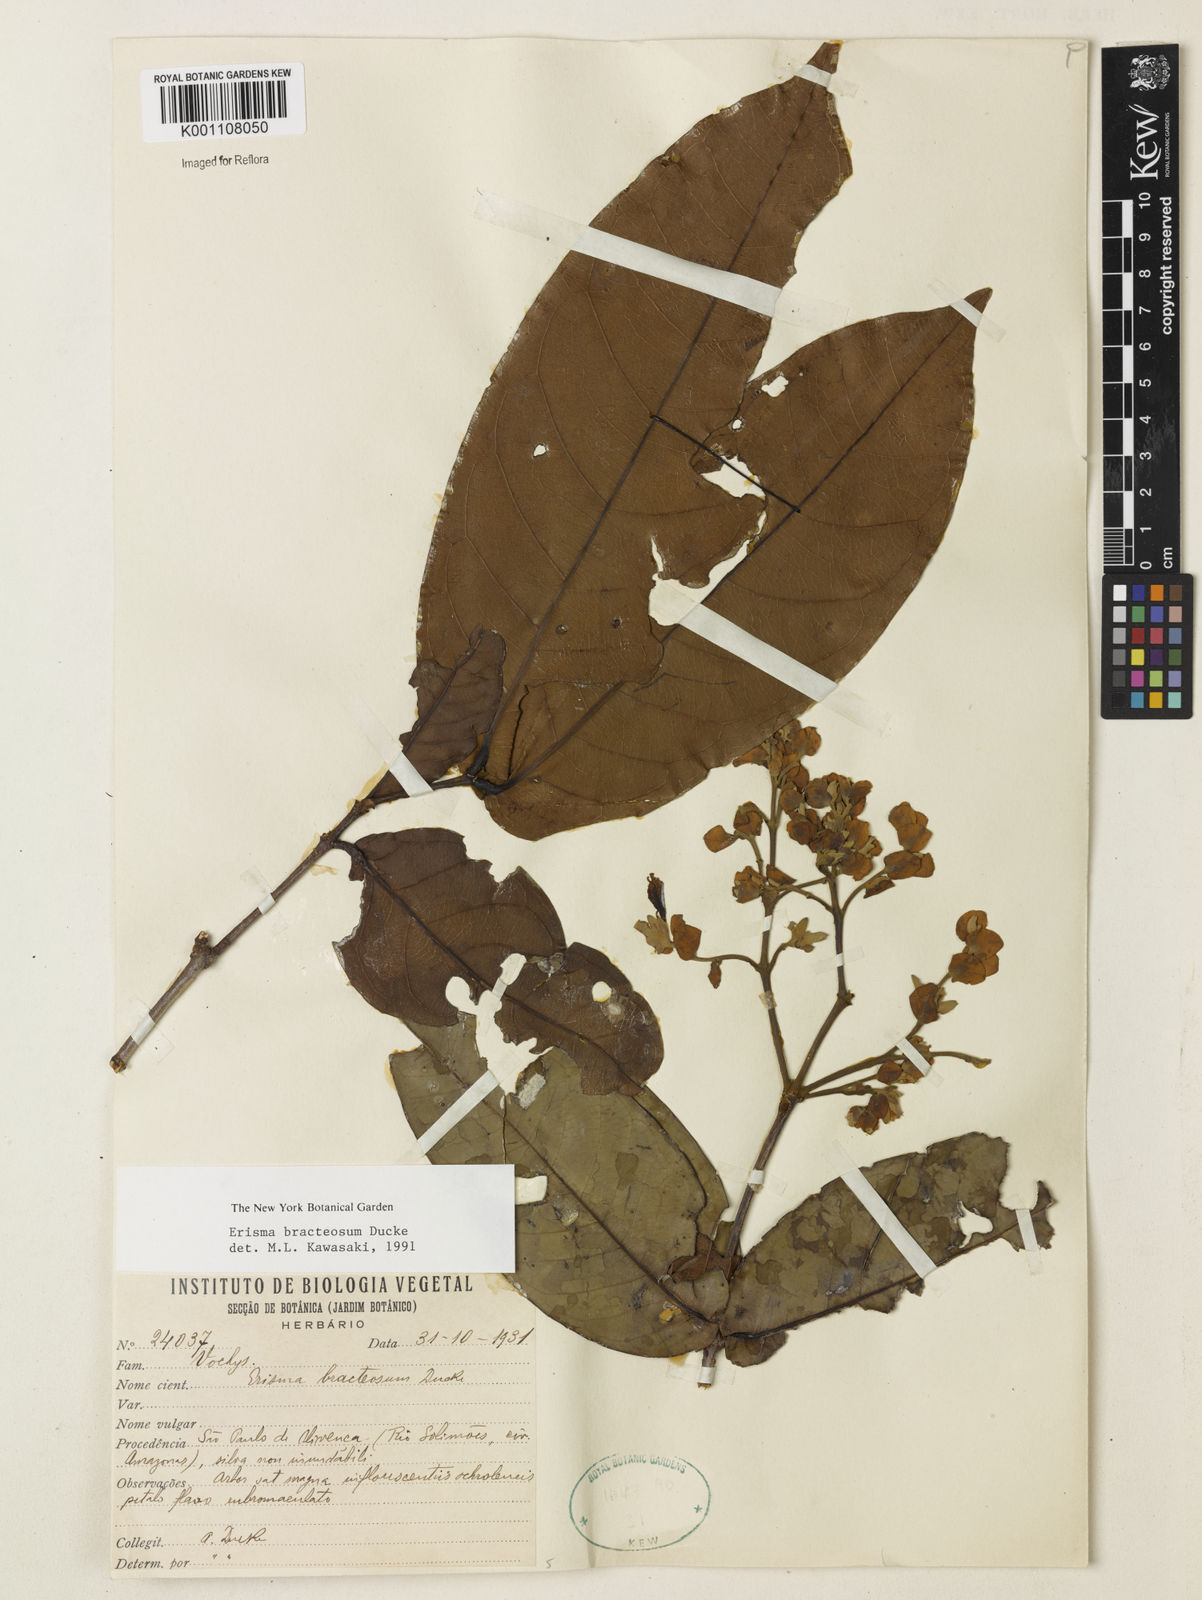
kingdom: Plantae
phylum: Tracheophyta
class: Magnoliopsida
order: Myrtales
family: Vochysiaceae
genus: Erisma
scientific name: Erisma bracteosum
